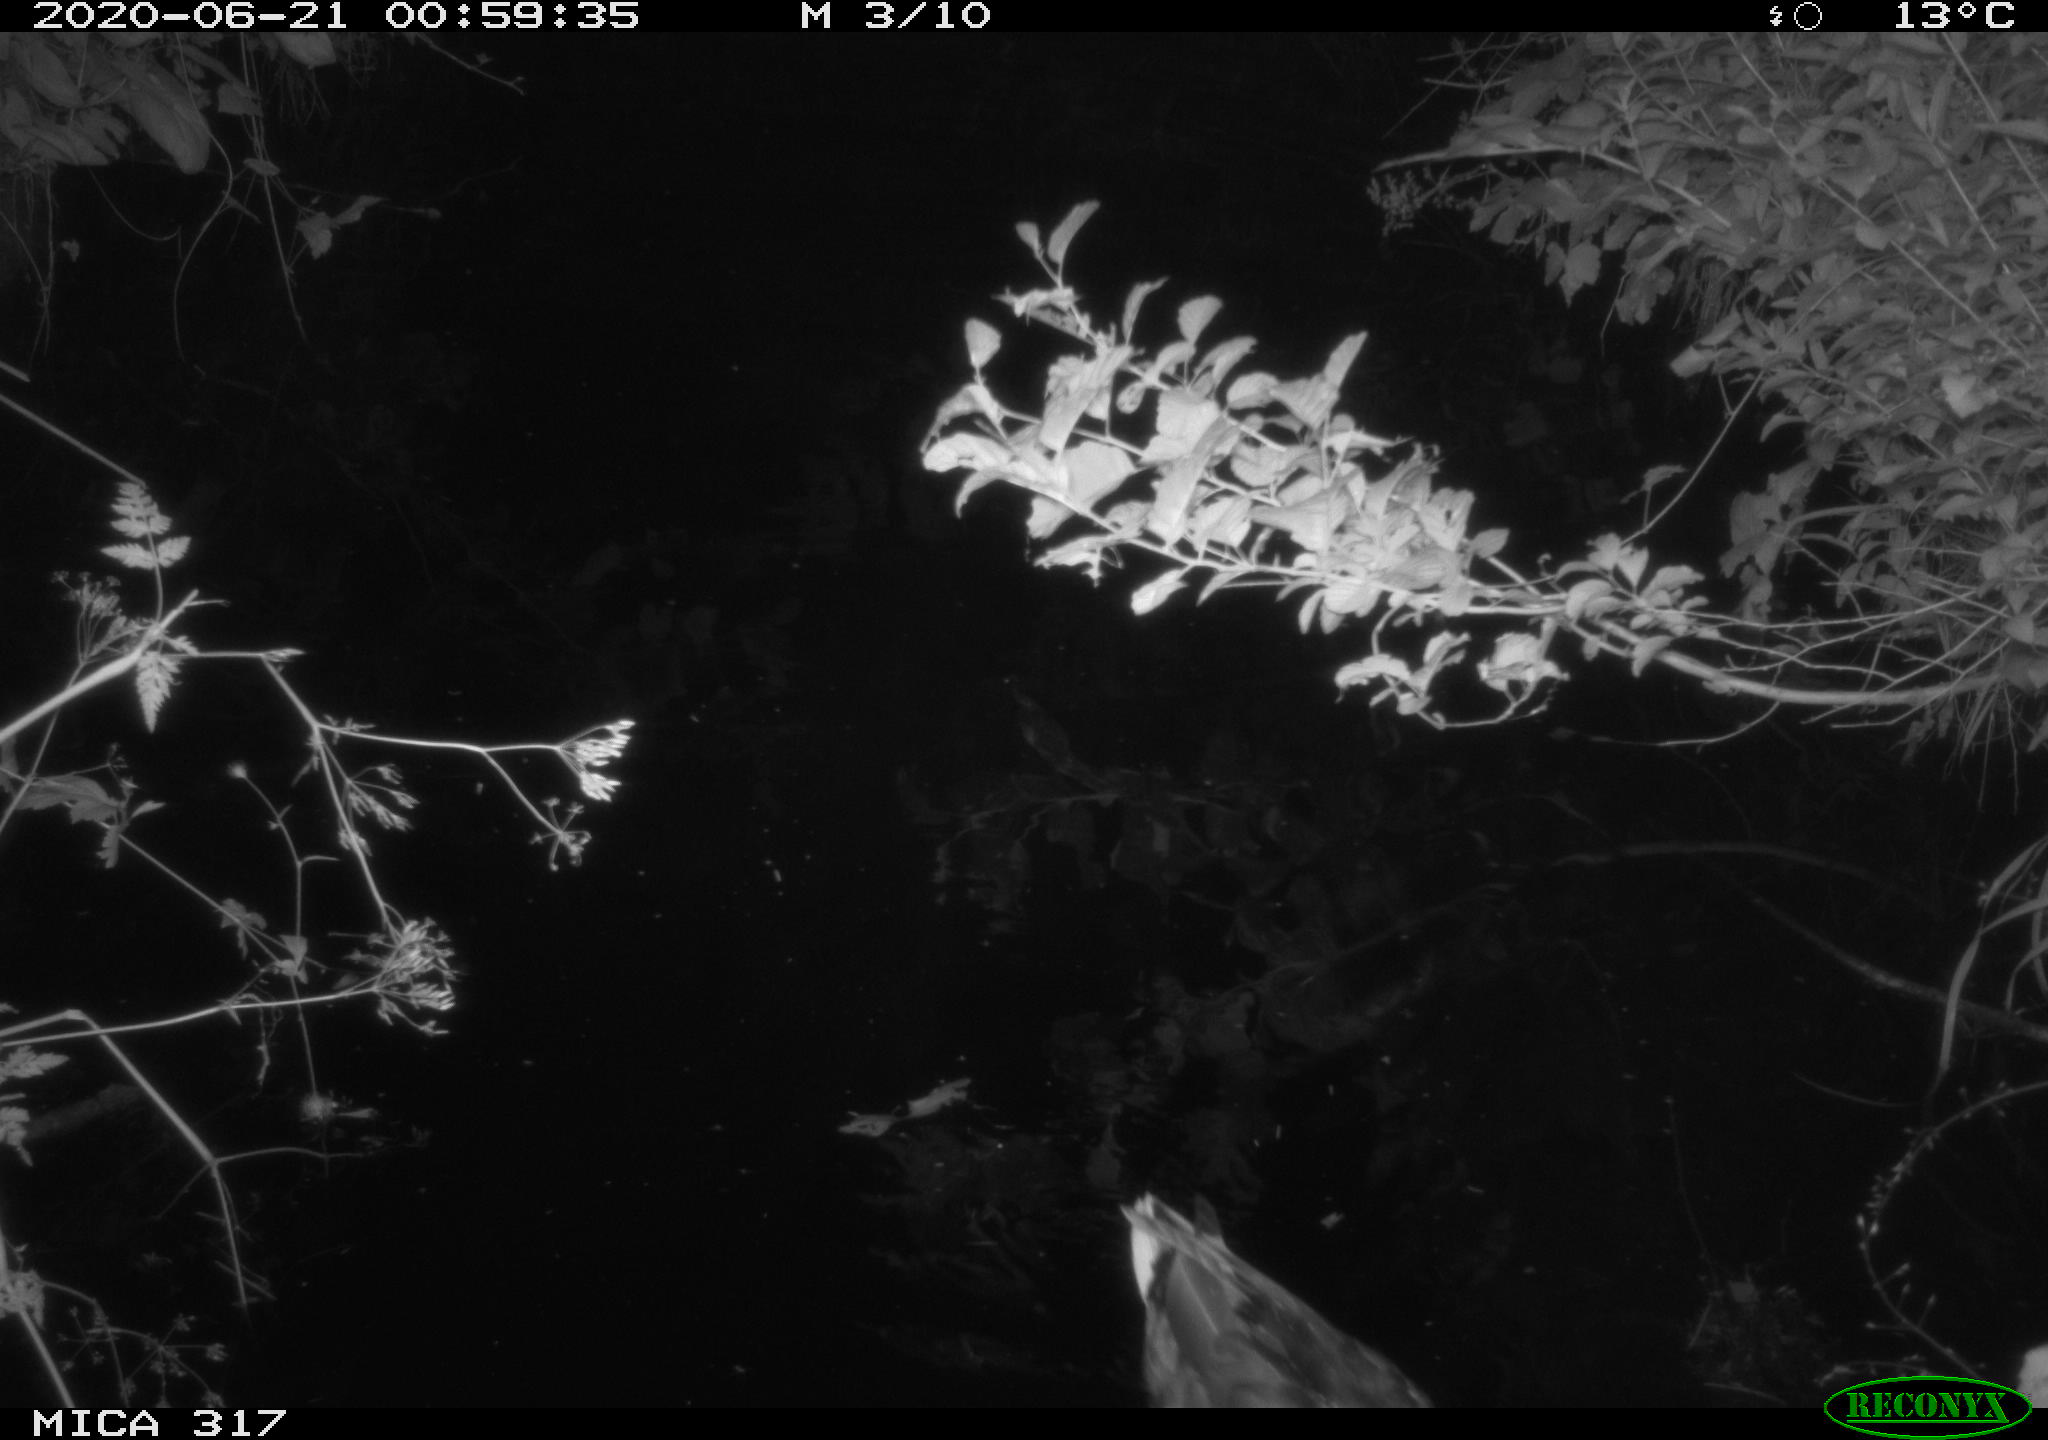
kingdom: Animalia
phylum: Chordata
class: Aves
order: Anseriformes
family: Anatidae
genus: Anas
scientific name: Anas platyrhynchos
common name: Mallard
